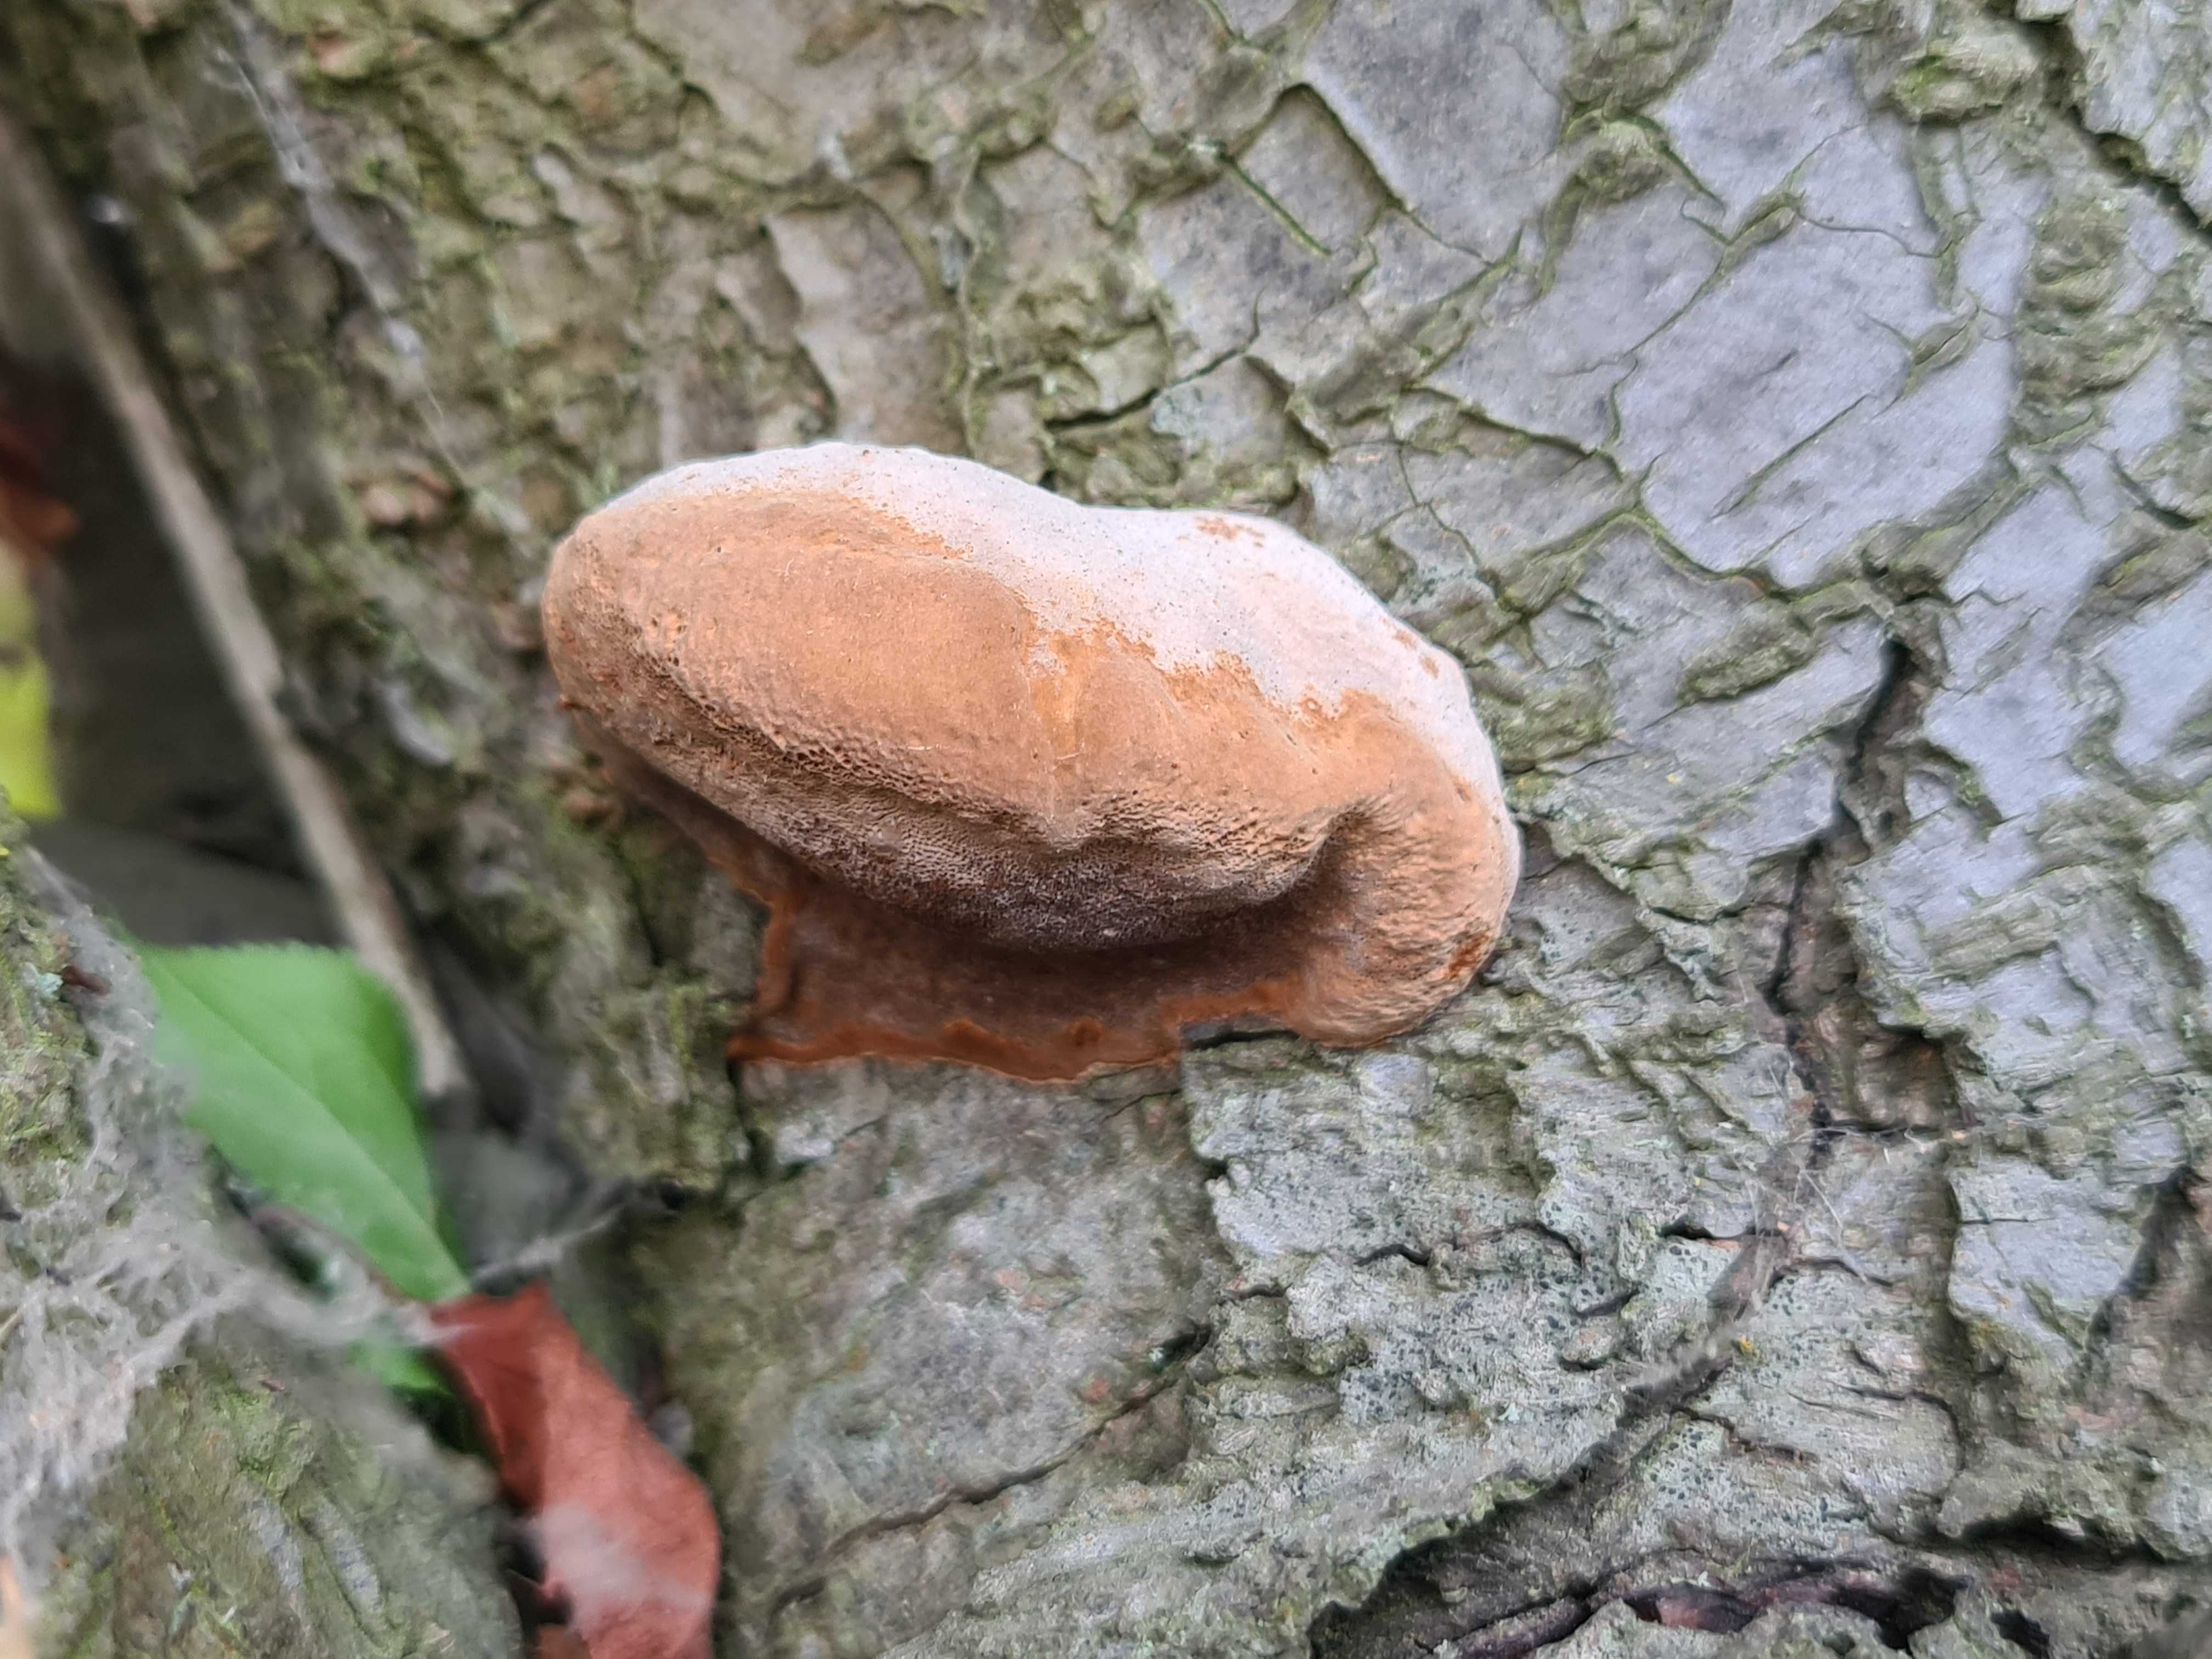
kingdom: Fungi
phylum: Basidiomycota
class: Agaricomycetes
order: Hymenochaetales
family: Hymenochaetaceae
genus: Phellinus
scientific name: Phellinus pomaceus
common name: blomme-ildporesvamp
